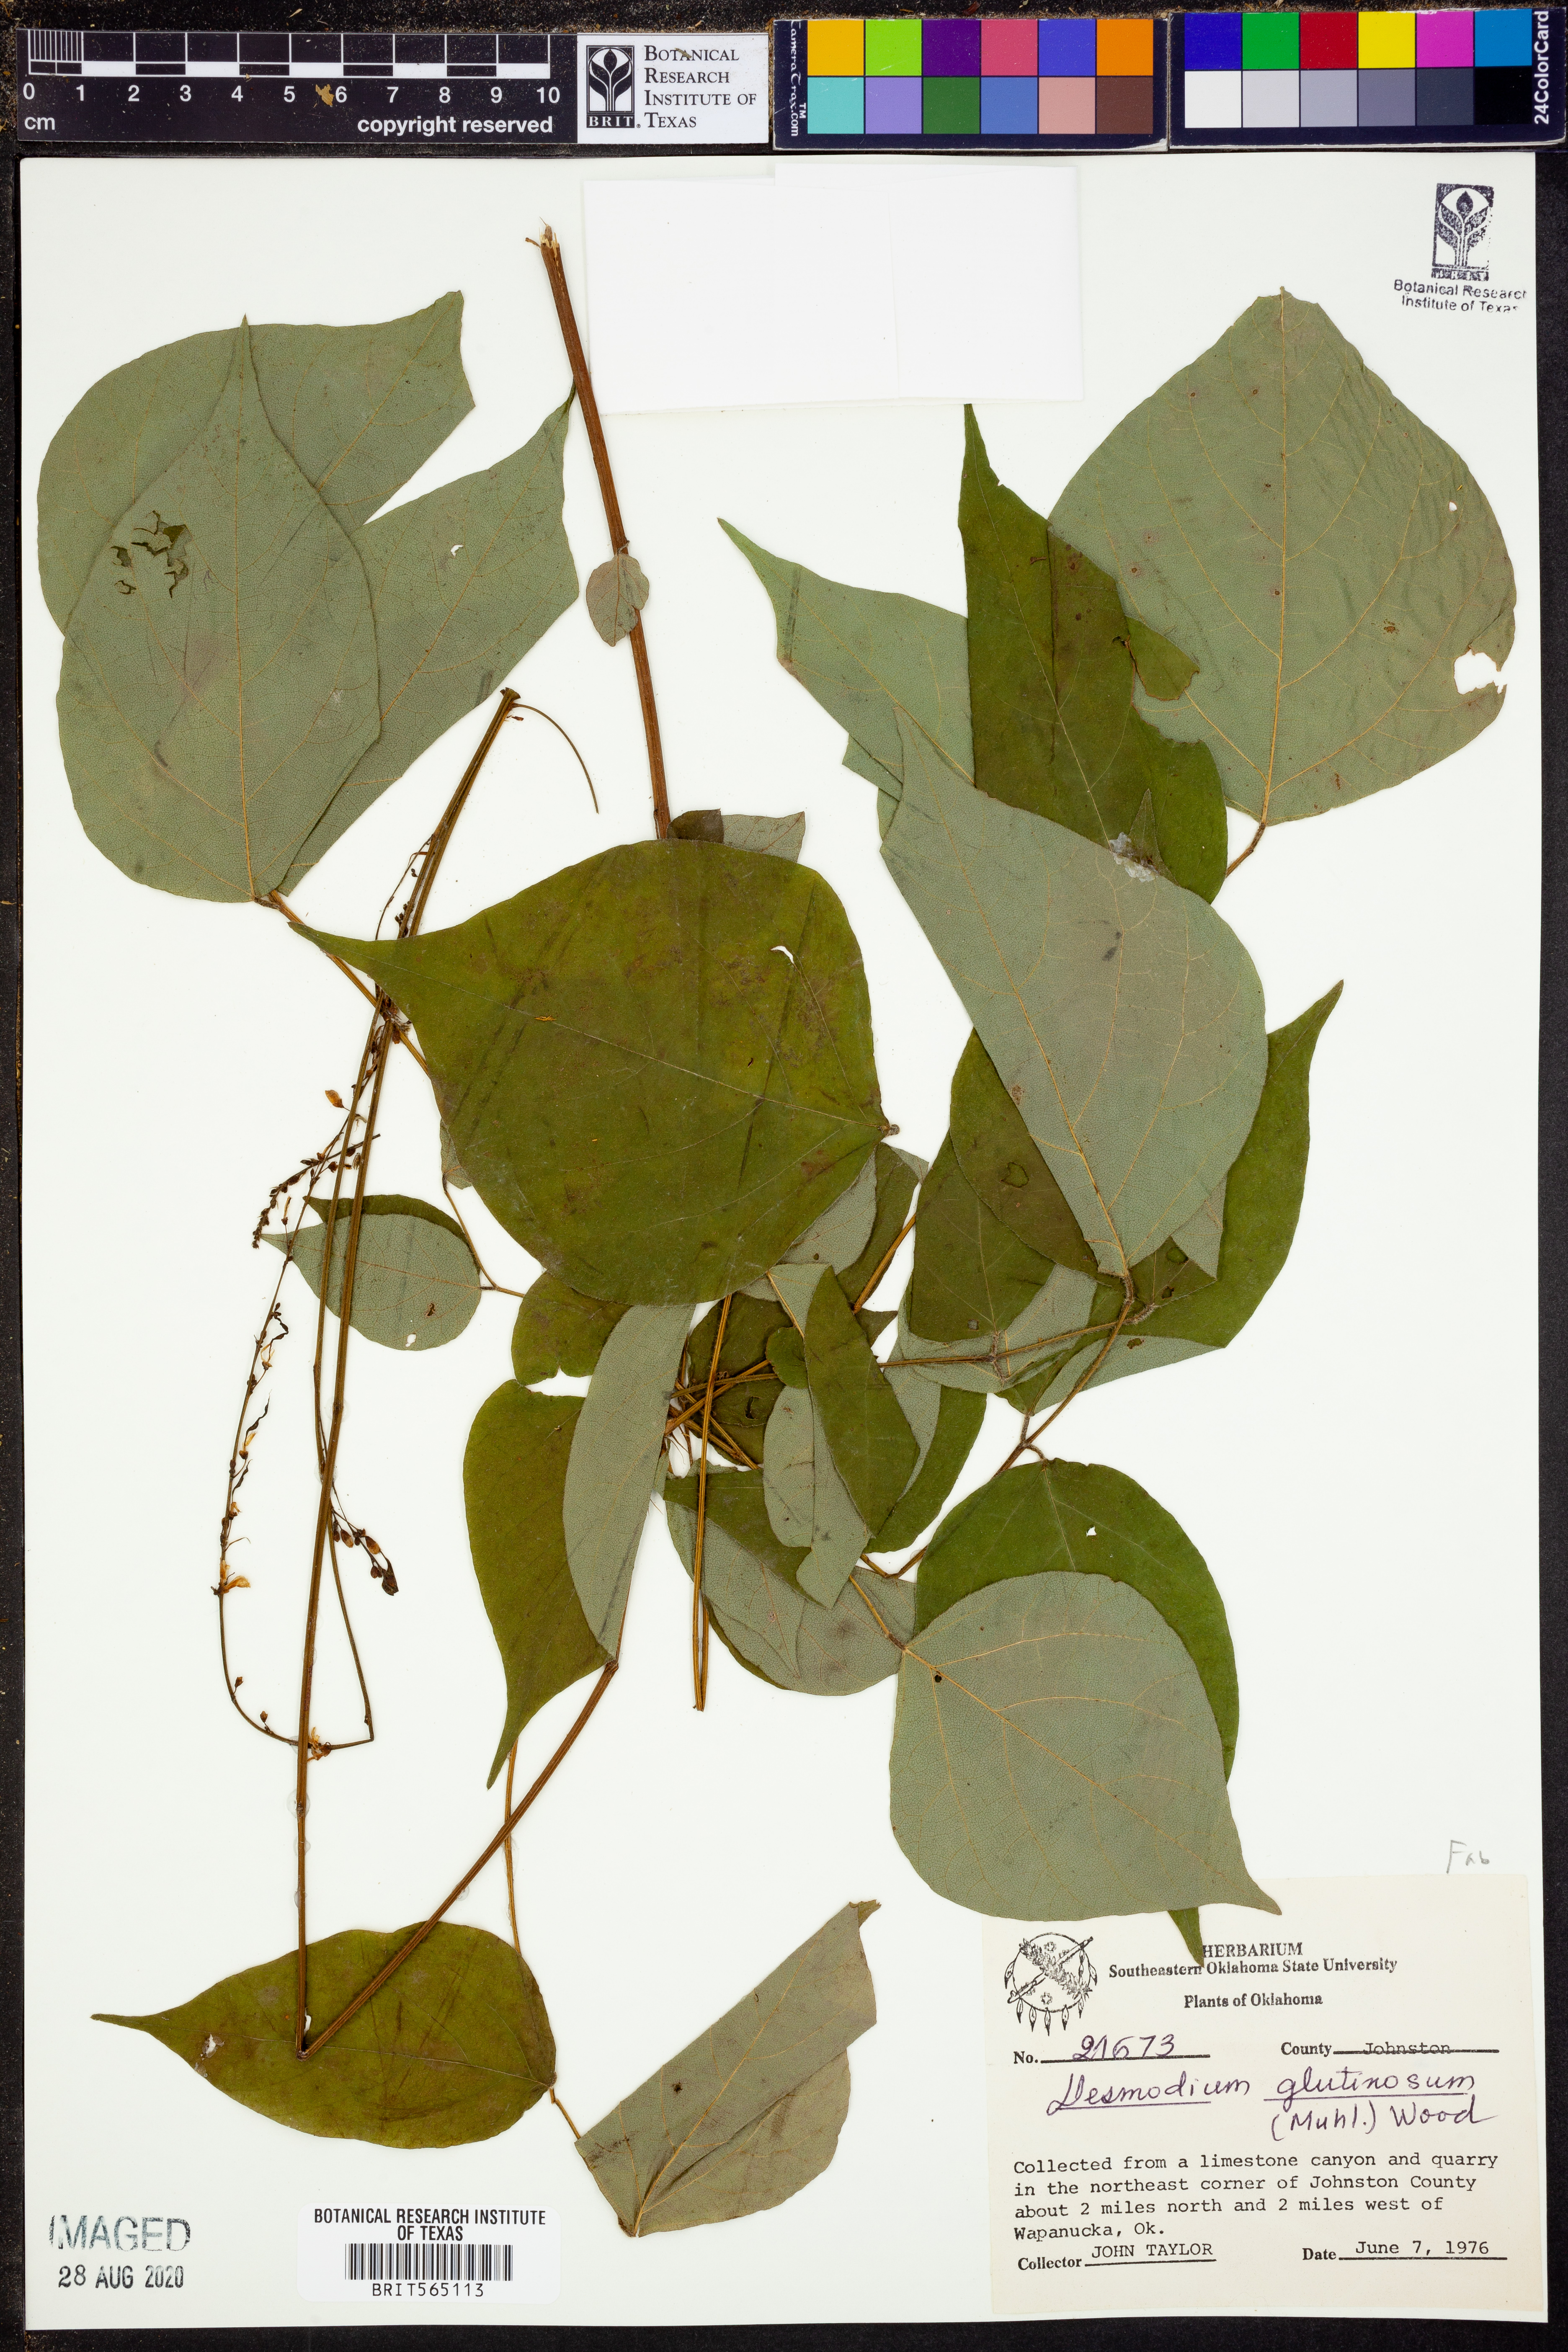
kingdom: Plantae
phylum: Tracheophyta
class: Magnoliopsida
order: Fabales
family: Fabaceae
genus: Hylodesmum
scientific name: Hylodesmum glutinosum
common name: Clustered-leaved tick-trefoil
